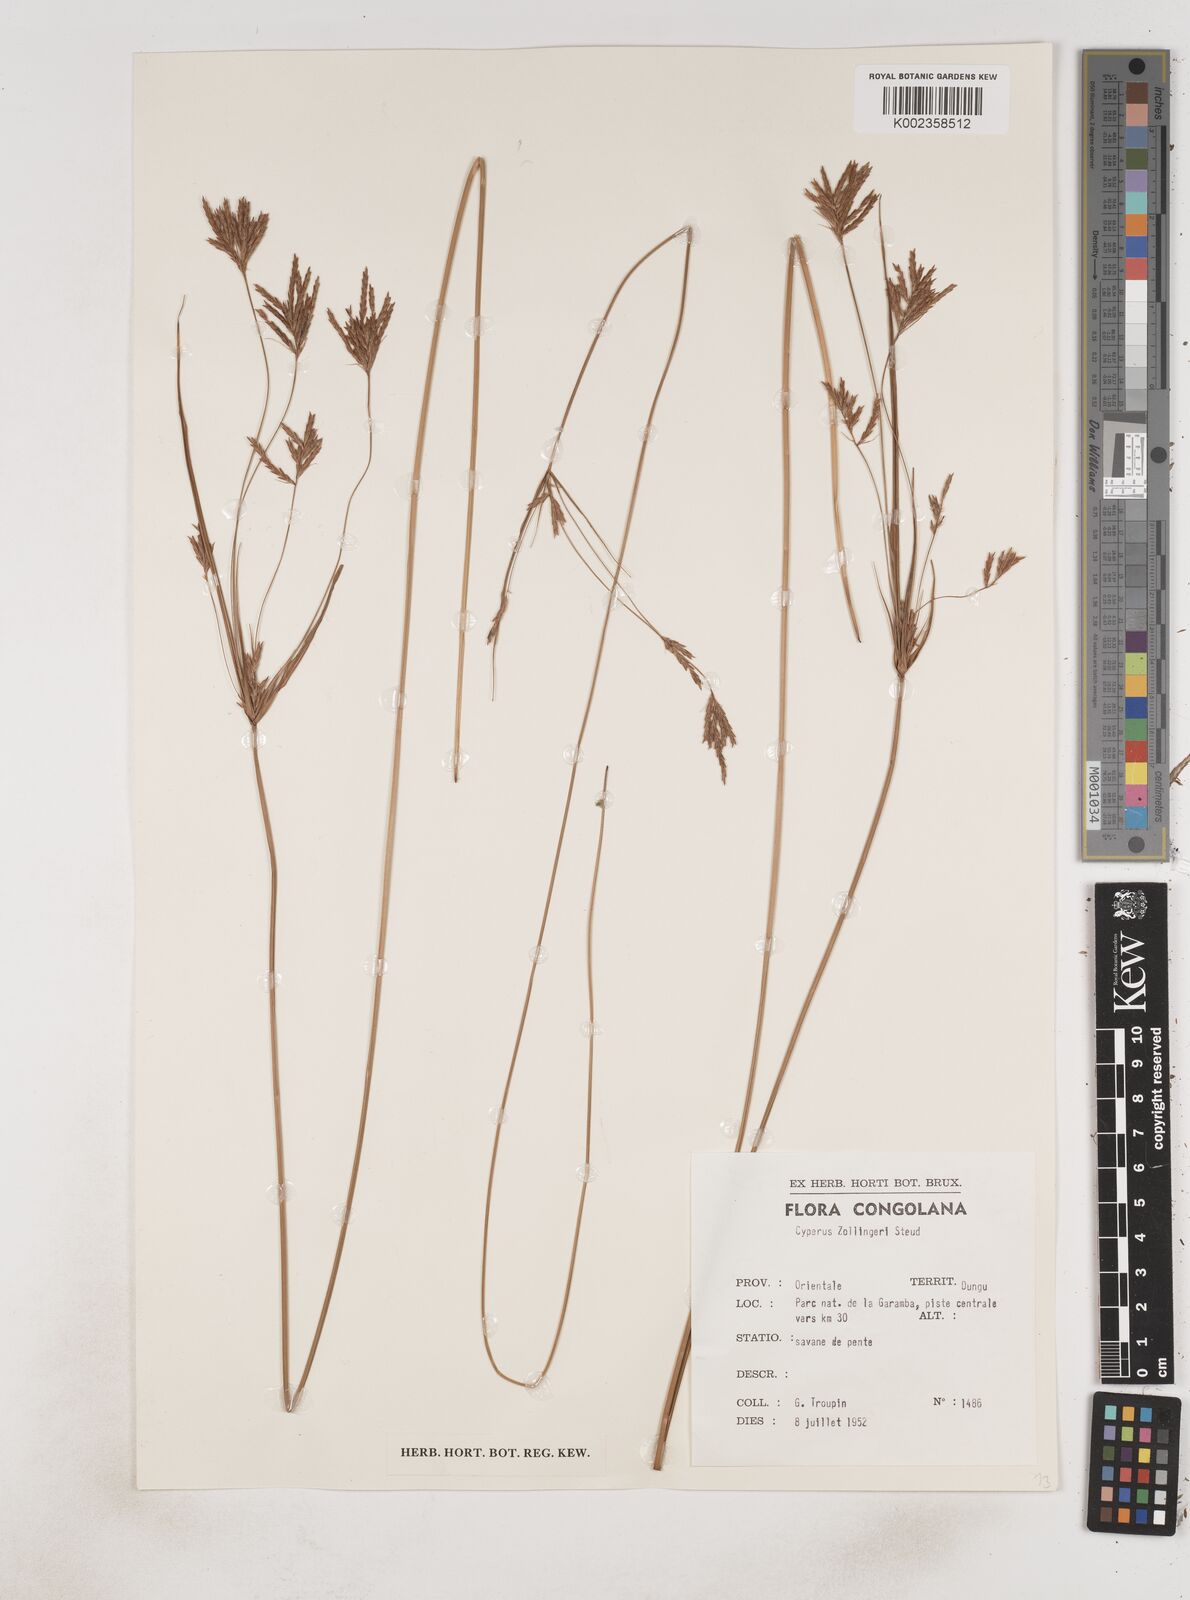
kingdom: Plantae
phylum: Tracheophyta
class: Liliopsida
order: Poales
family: Cyperaceae
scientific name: Cyperaceae
